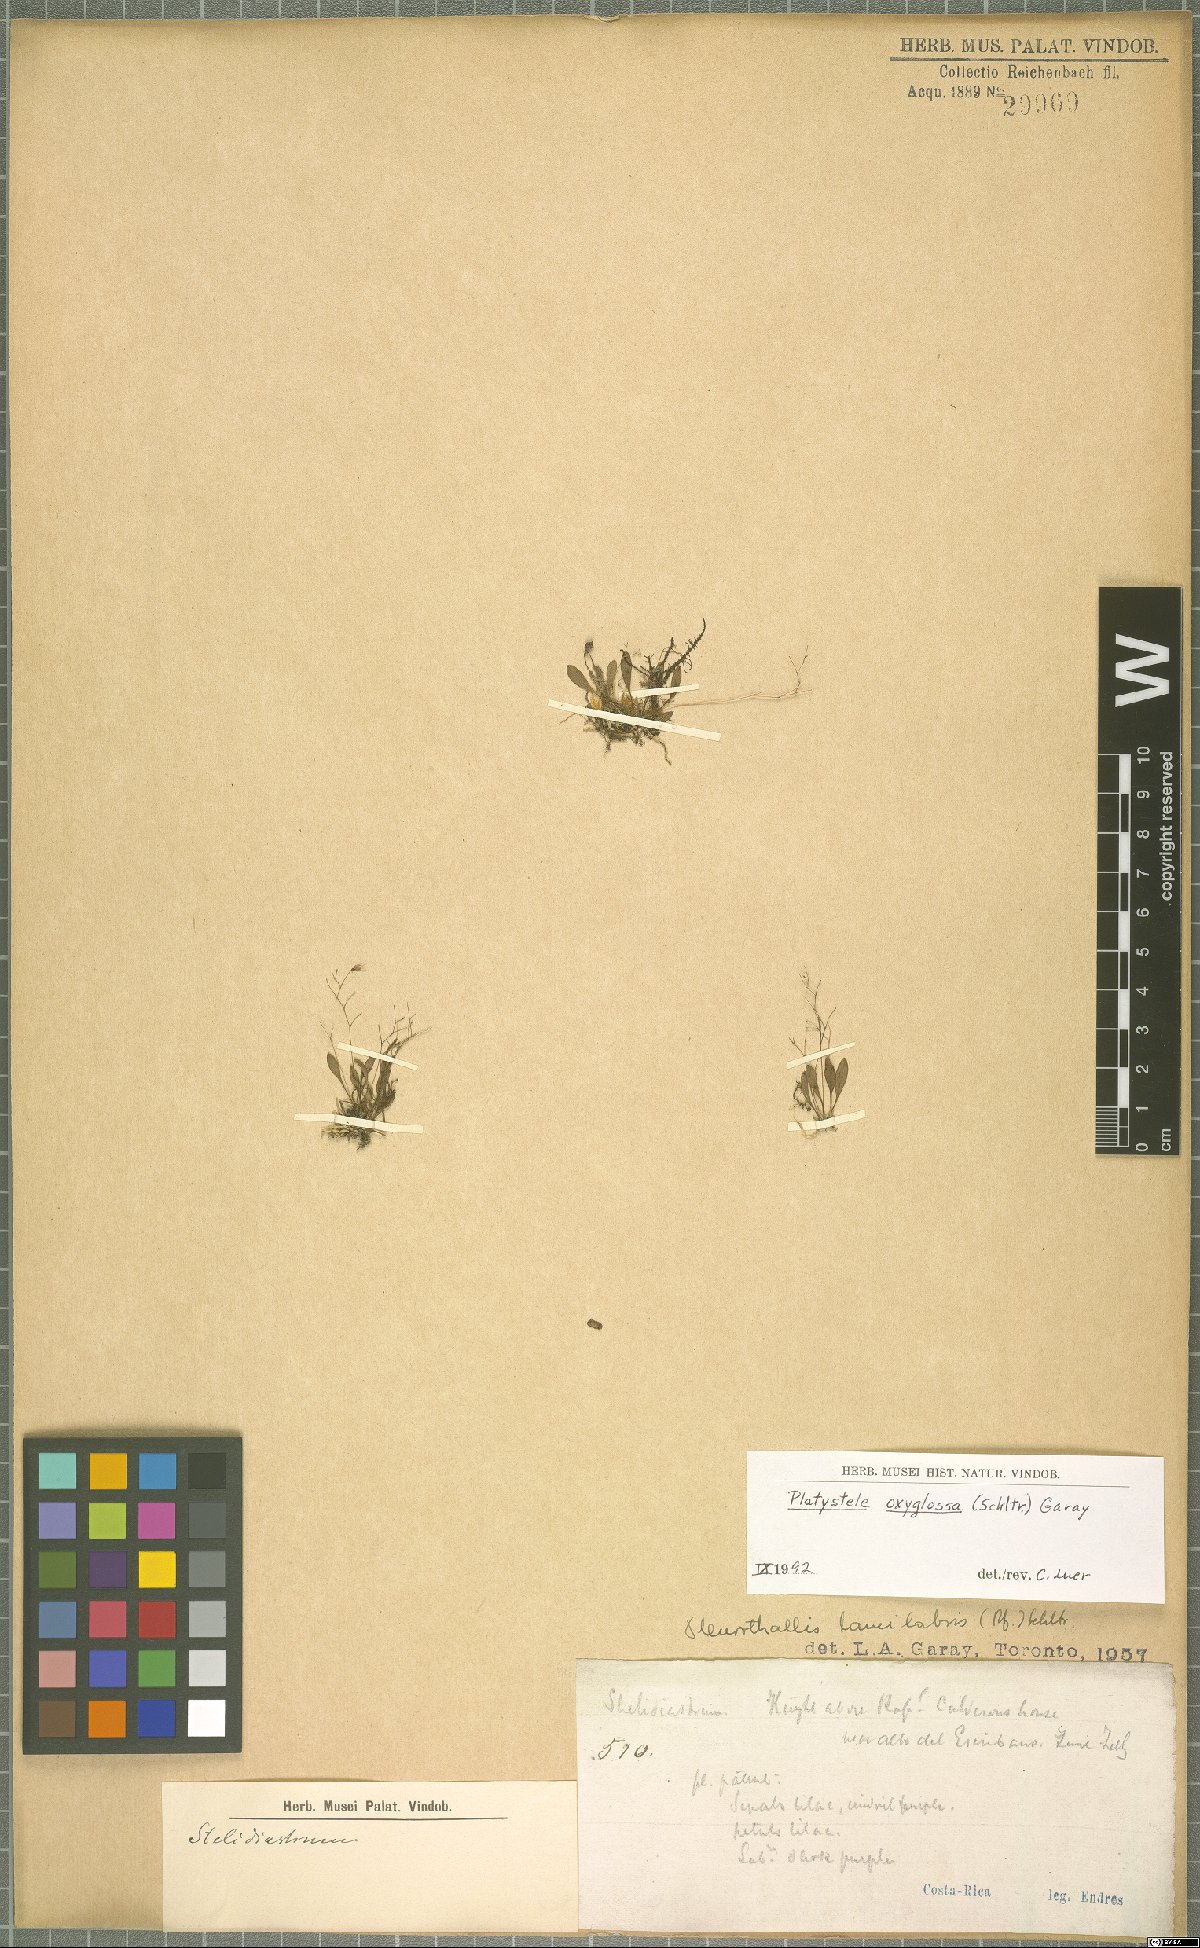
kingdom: Plantae
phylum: Tracheophyta
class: Liliopsida
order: Asparagales
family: Orchidaceae
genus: Platystele
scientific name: Platystele oxyglossa
